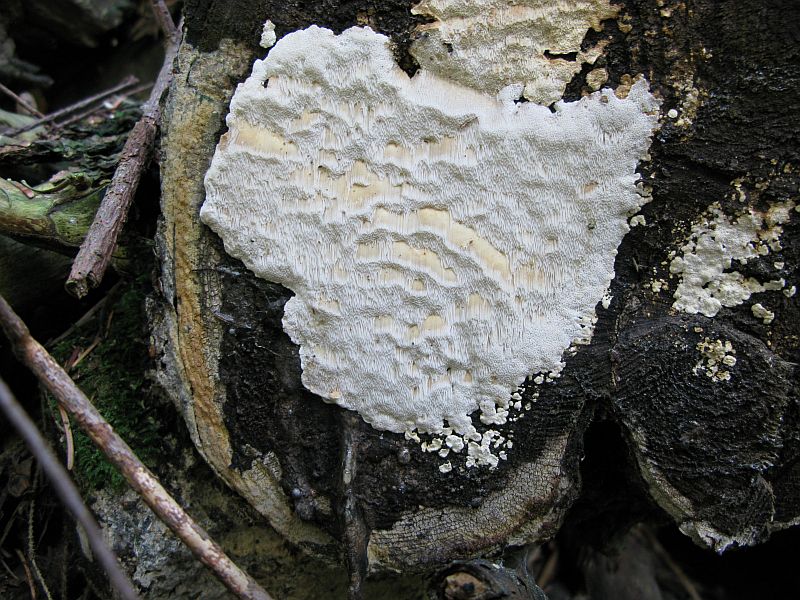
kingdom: Fungi
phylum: Basidiomycota
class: Agaricomycetes
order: Polyporales
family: Fomitopsidaceae
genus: Neoantrodia
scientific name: Neoantrodia serialis
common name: række-sejporesvamp
